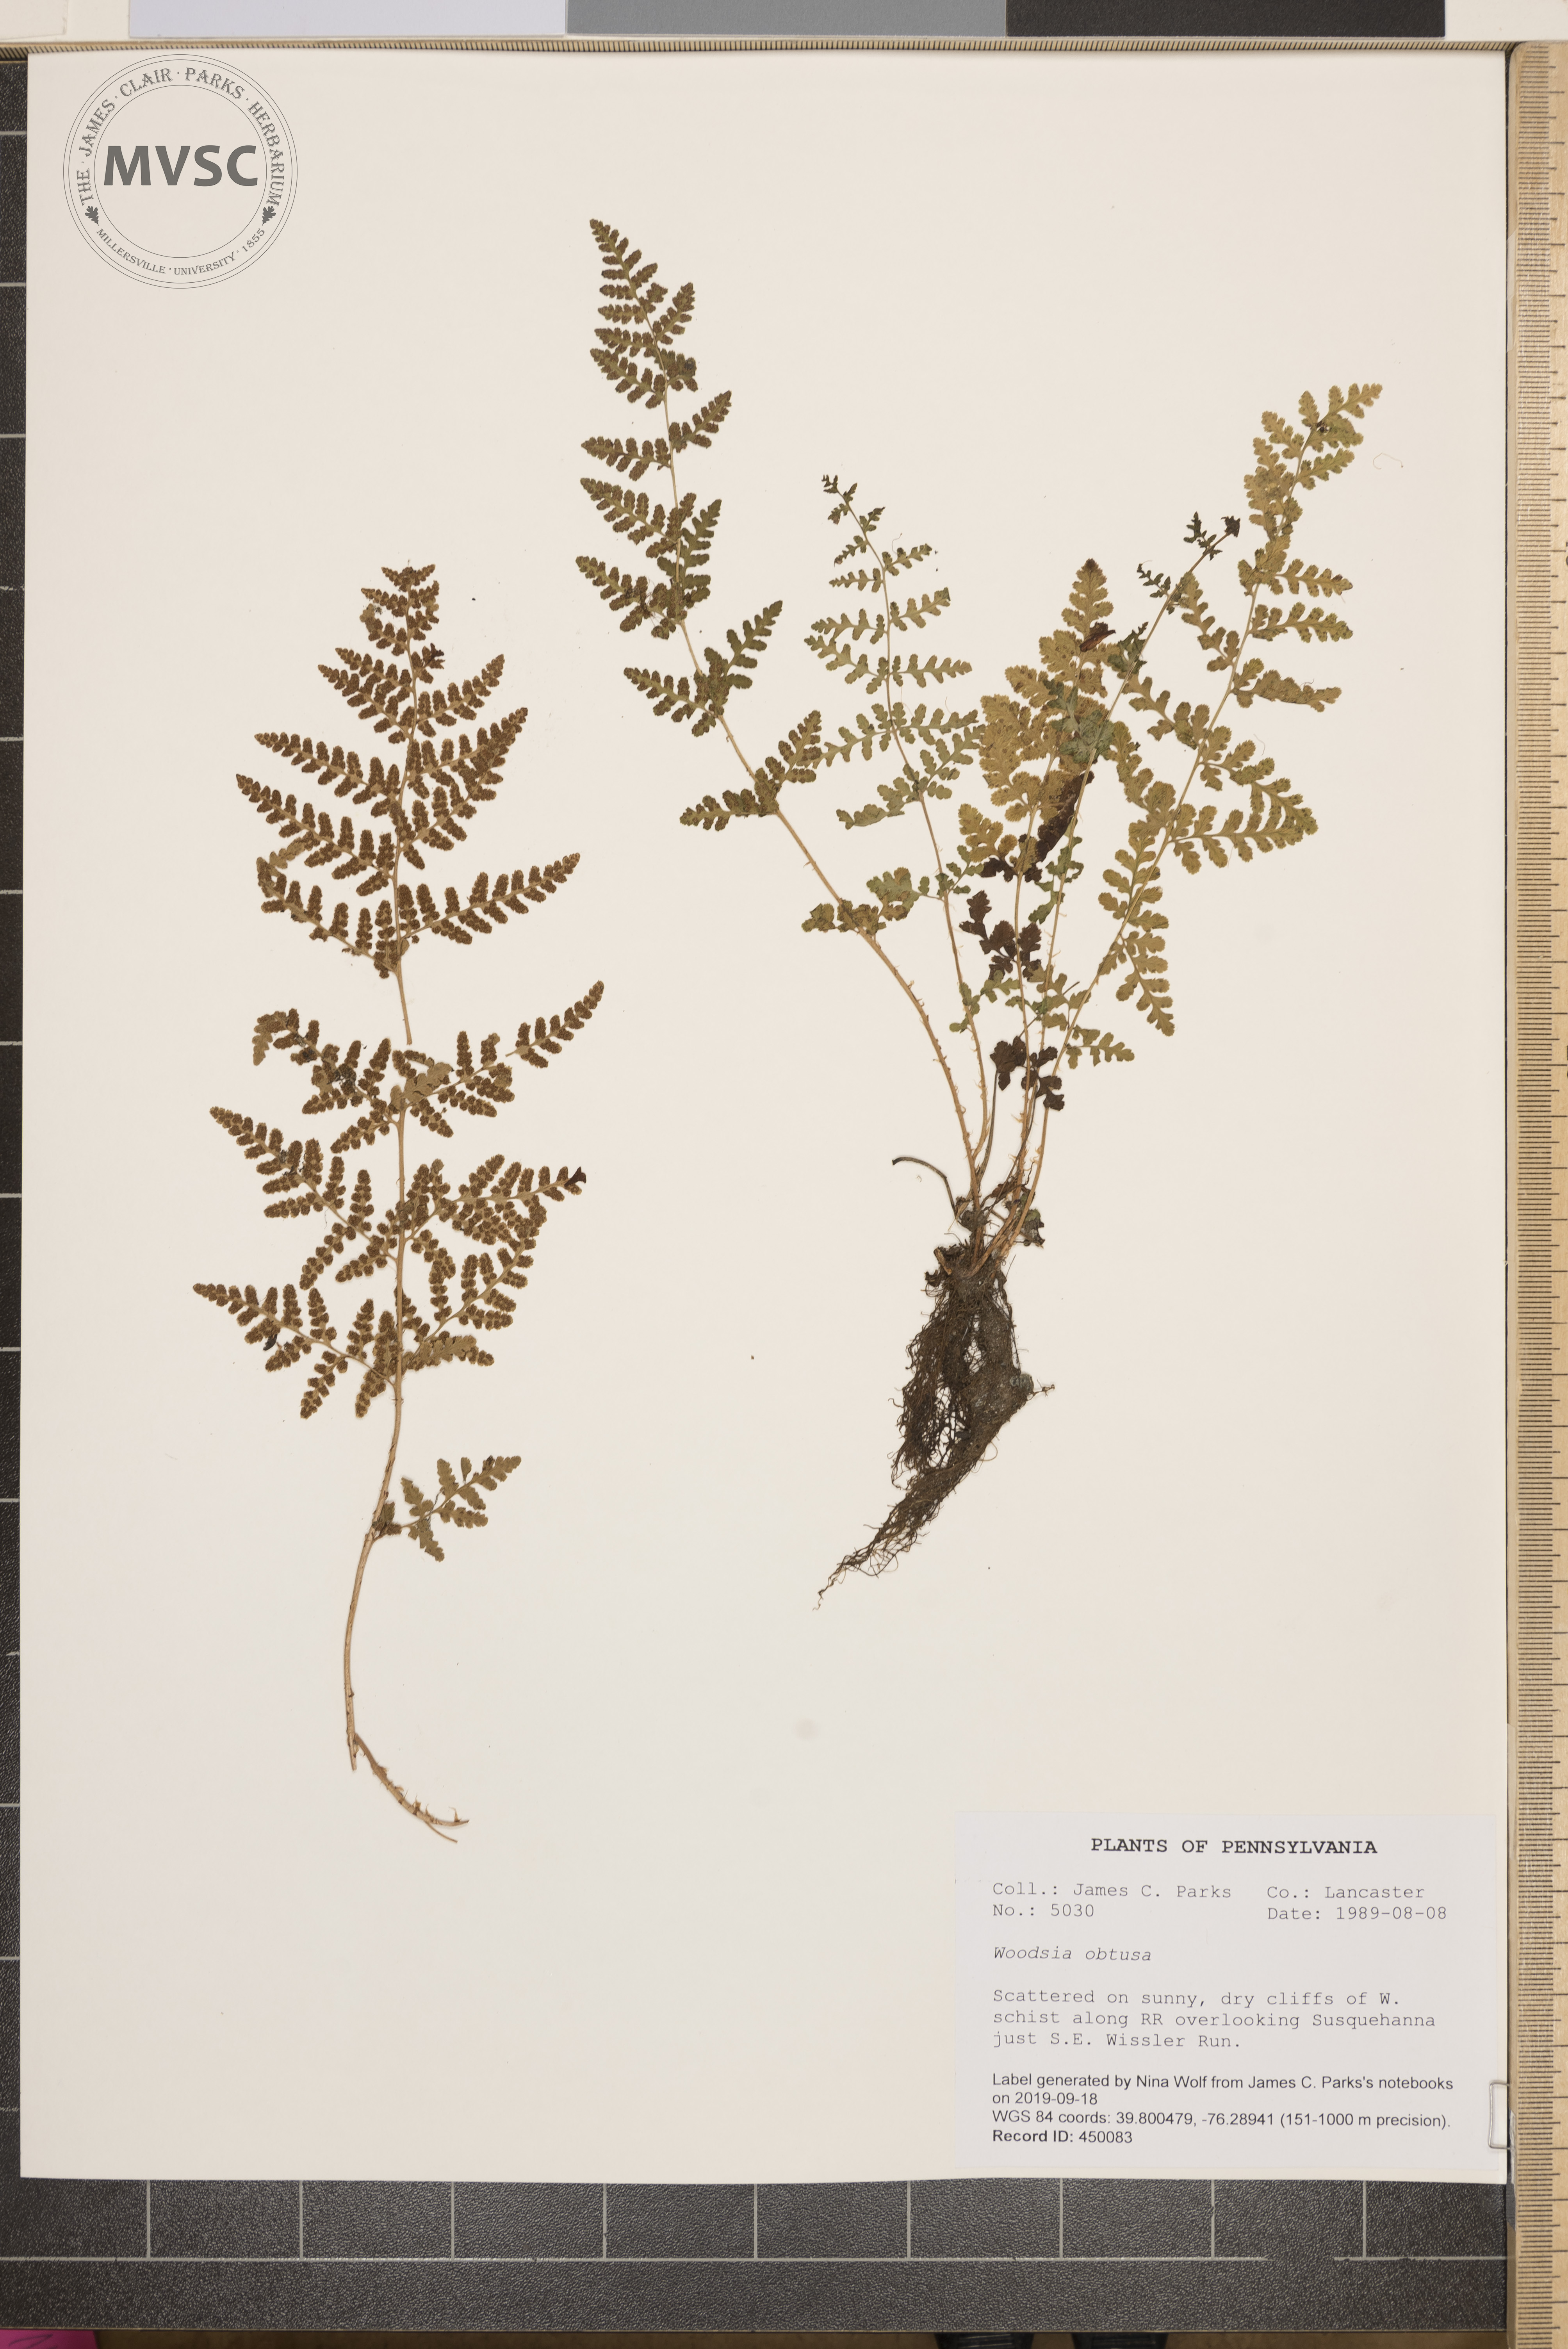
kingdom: Plantae
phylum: Tracheophyta
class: Polypodiopsida
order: Polypodiales
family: Woodsiaceae
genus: Physematium
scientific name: Physematium obtusum
